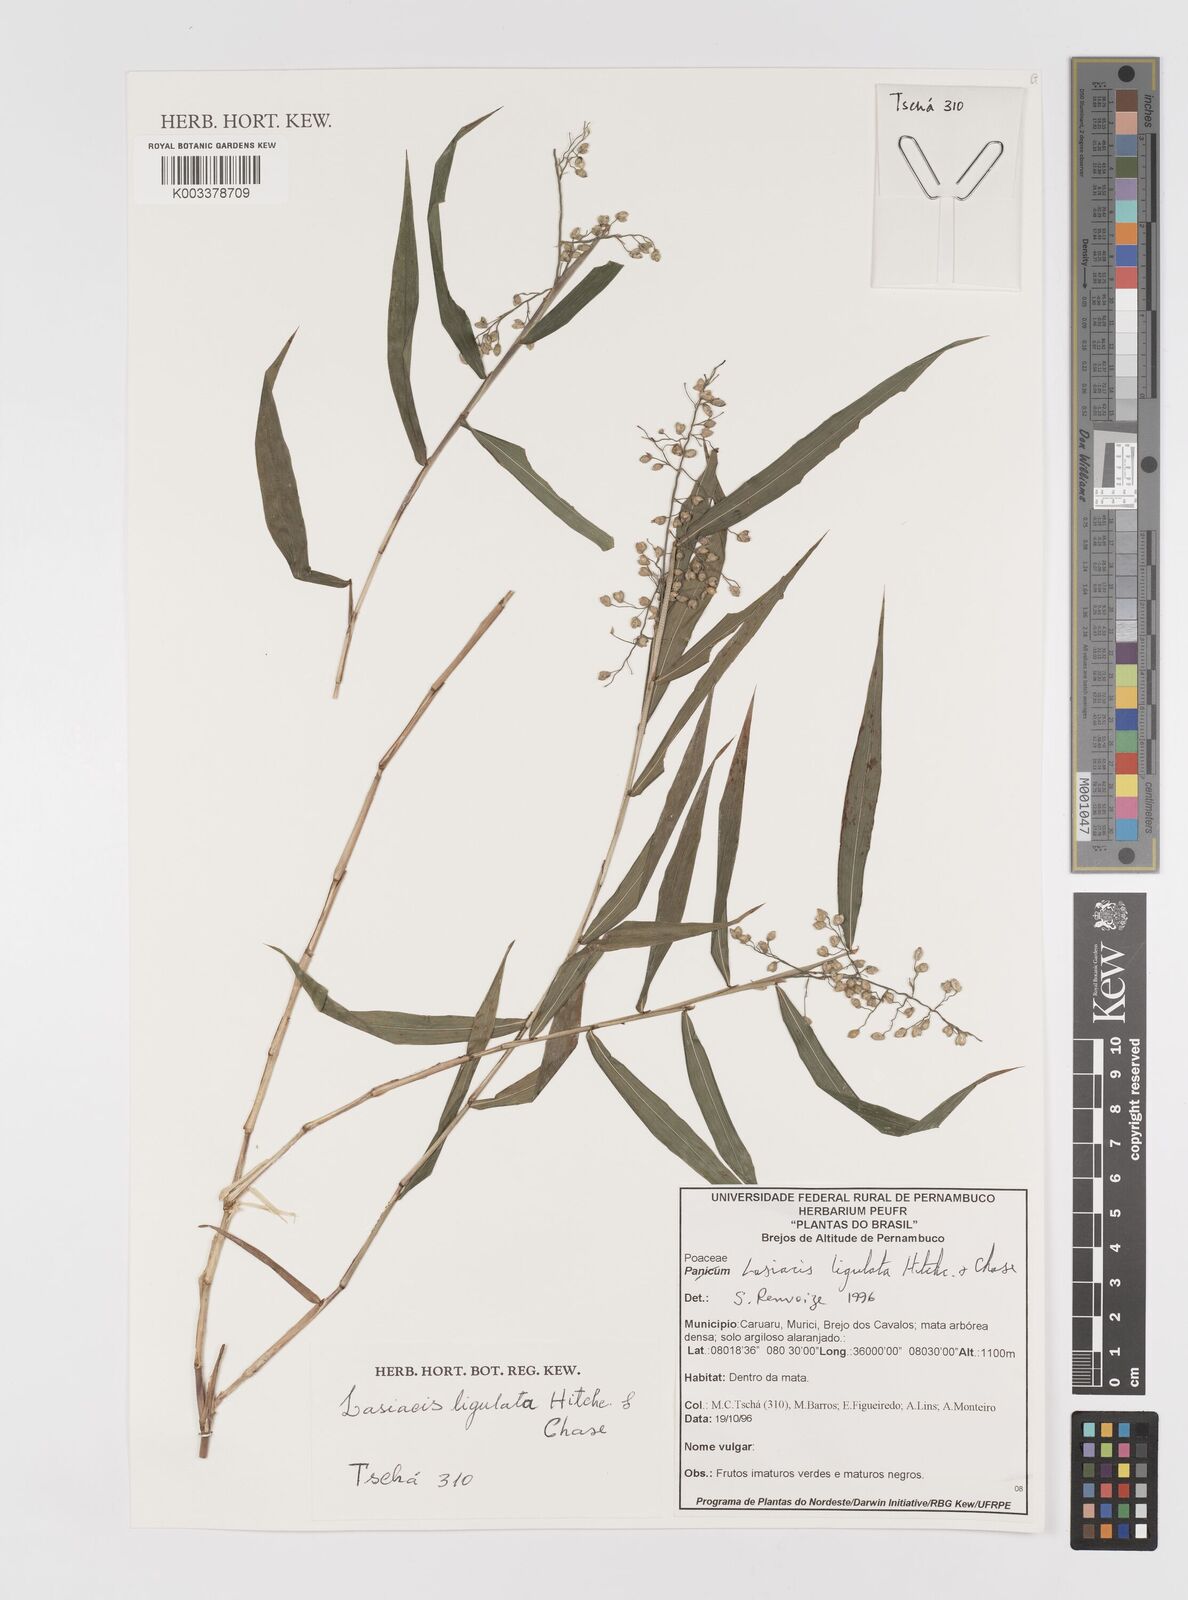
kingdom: Plantae
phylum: Tracheophyta
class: Liliopsida
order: Poales
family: Poaceae
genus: Lasiacis
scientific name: Lasiacis ligulata
